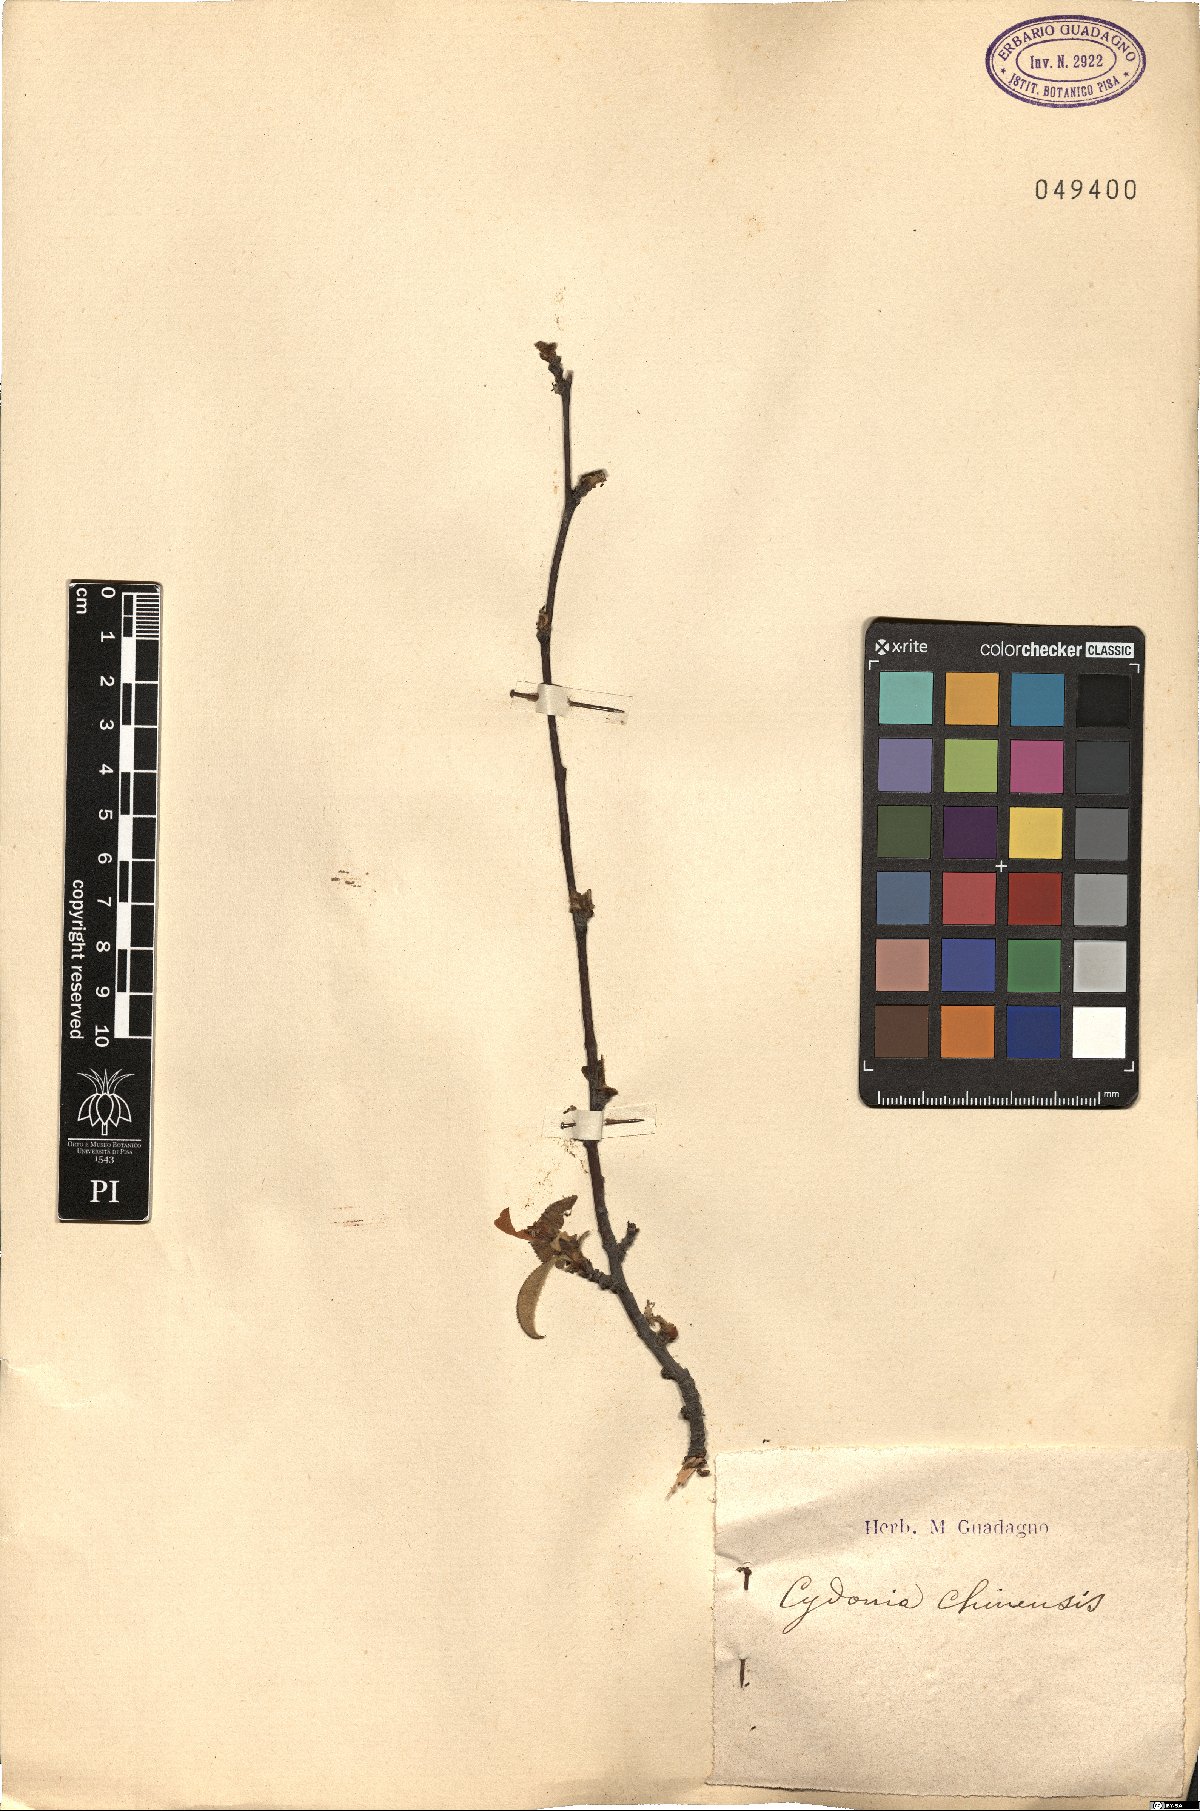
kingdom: Plantae
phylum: Tracheophyta
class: Magnoliopsida
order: Rosales
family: Rosaceae
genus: Pseudocydonia
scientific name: Pseudocydonia sinensis
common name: Chinese-quince
